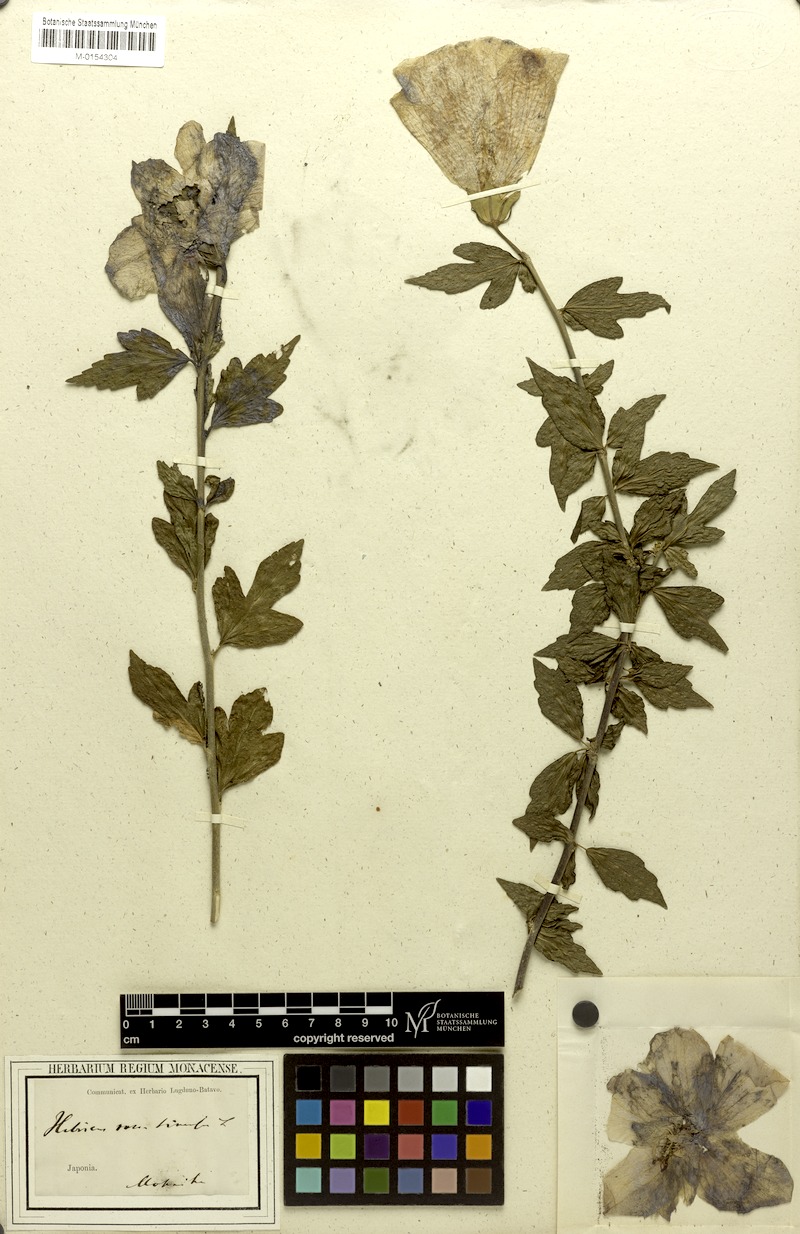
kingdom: Plantae
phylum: Tracheophyta
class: Magnoliopsida
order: Malvales
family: Malvaceae
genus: Hibiscus
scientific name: Hibiscus rosa-sinensis
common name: Hibiscus
